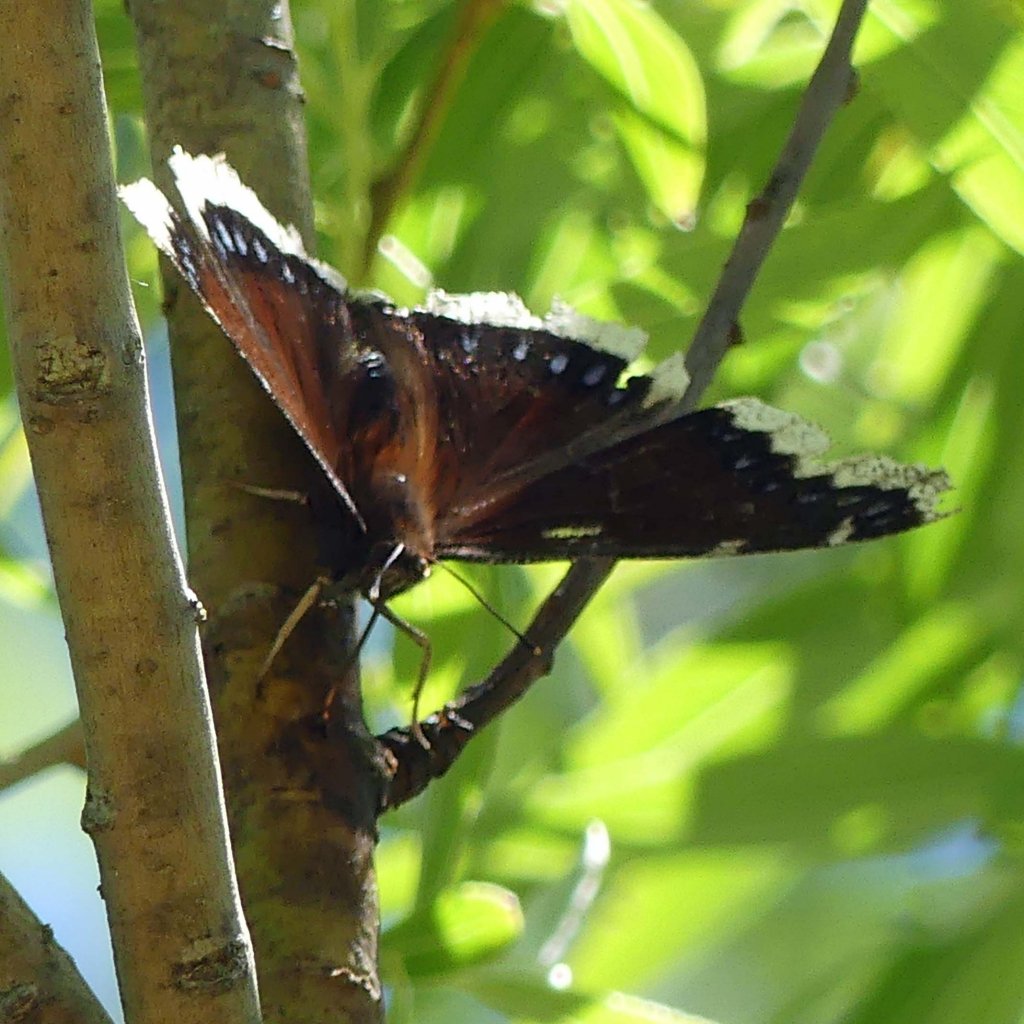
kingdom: Animalia
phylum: Arthropoda
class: Insecta
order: Lepidoptera
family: Nymphalidae
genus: Nymphalis
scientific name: Nymphalis antiopa
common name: Mourning Cloak
